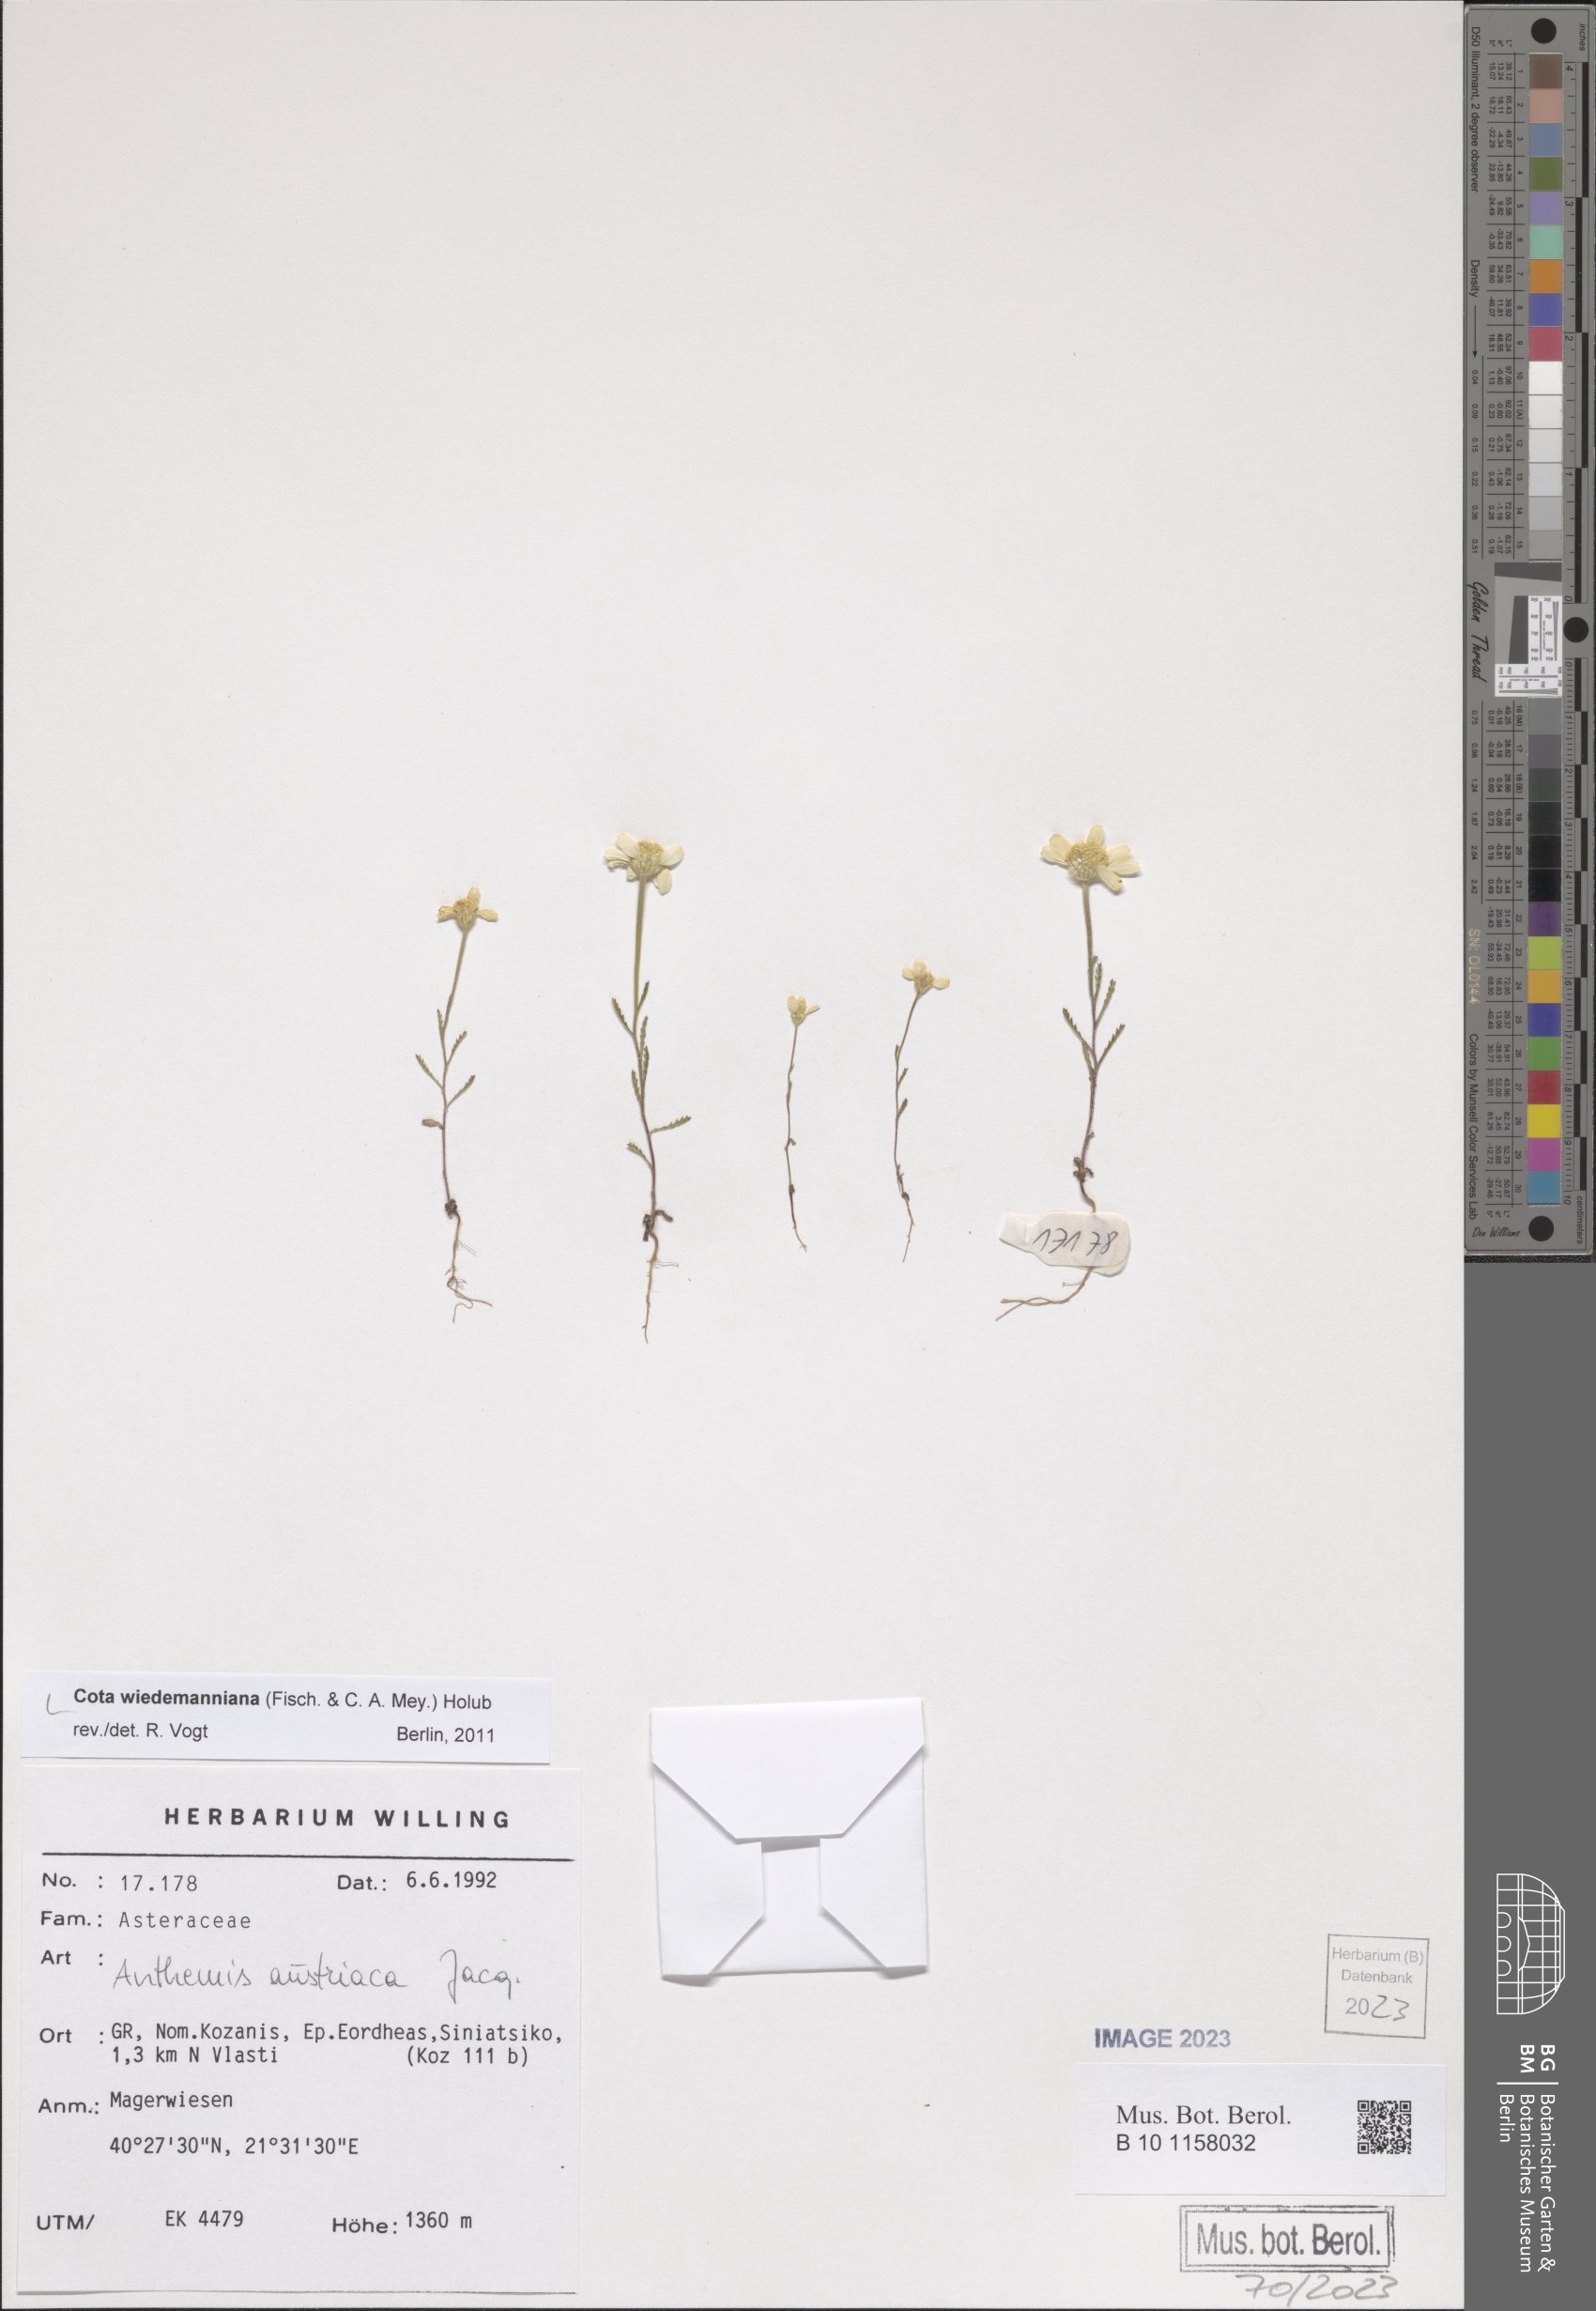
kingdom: Plantae
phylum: Tracheophyta
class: Magnoliopsida
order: Asterales
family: Asteraceae
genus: Cota
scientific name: Cota wiedemanniana
